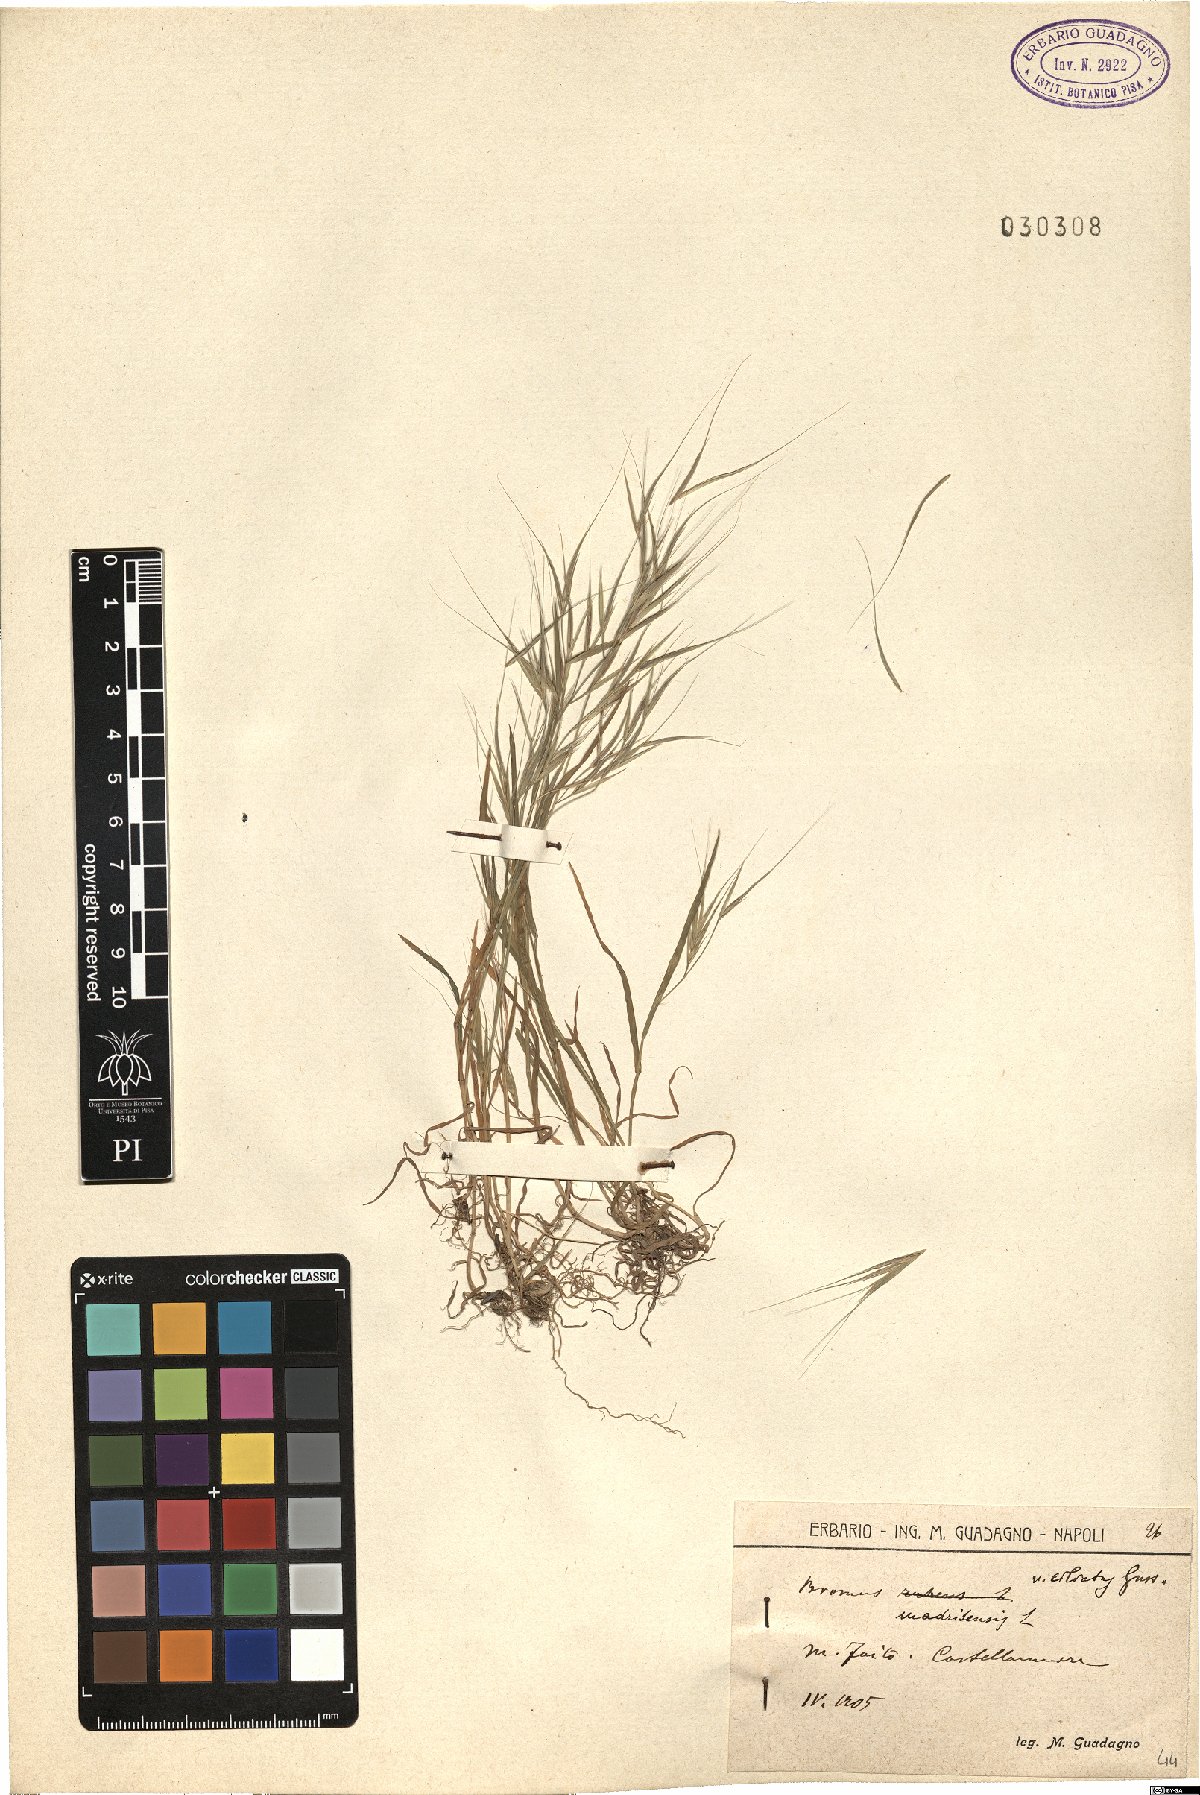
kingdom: Plantae
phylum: Tracheophyta
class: Liliopsida
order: Poales
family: Poaceae
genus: Bromus
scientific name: Bromus madritensis
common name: Compact brome
